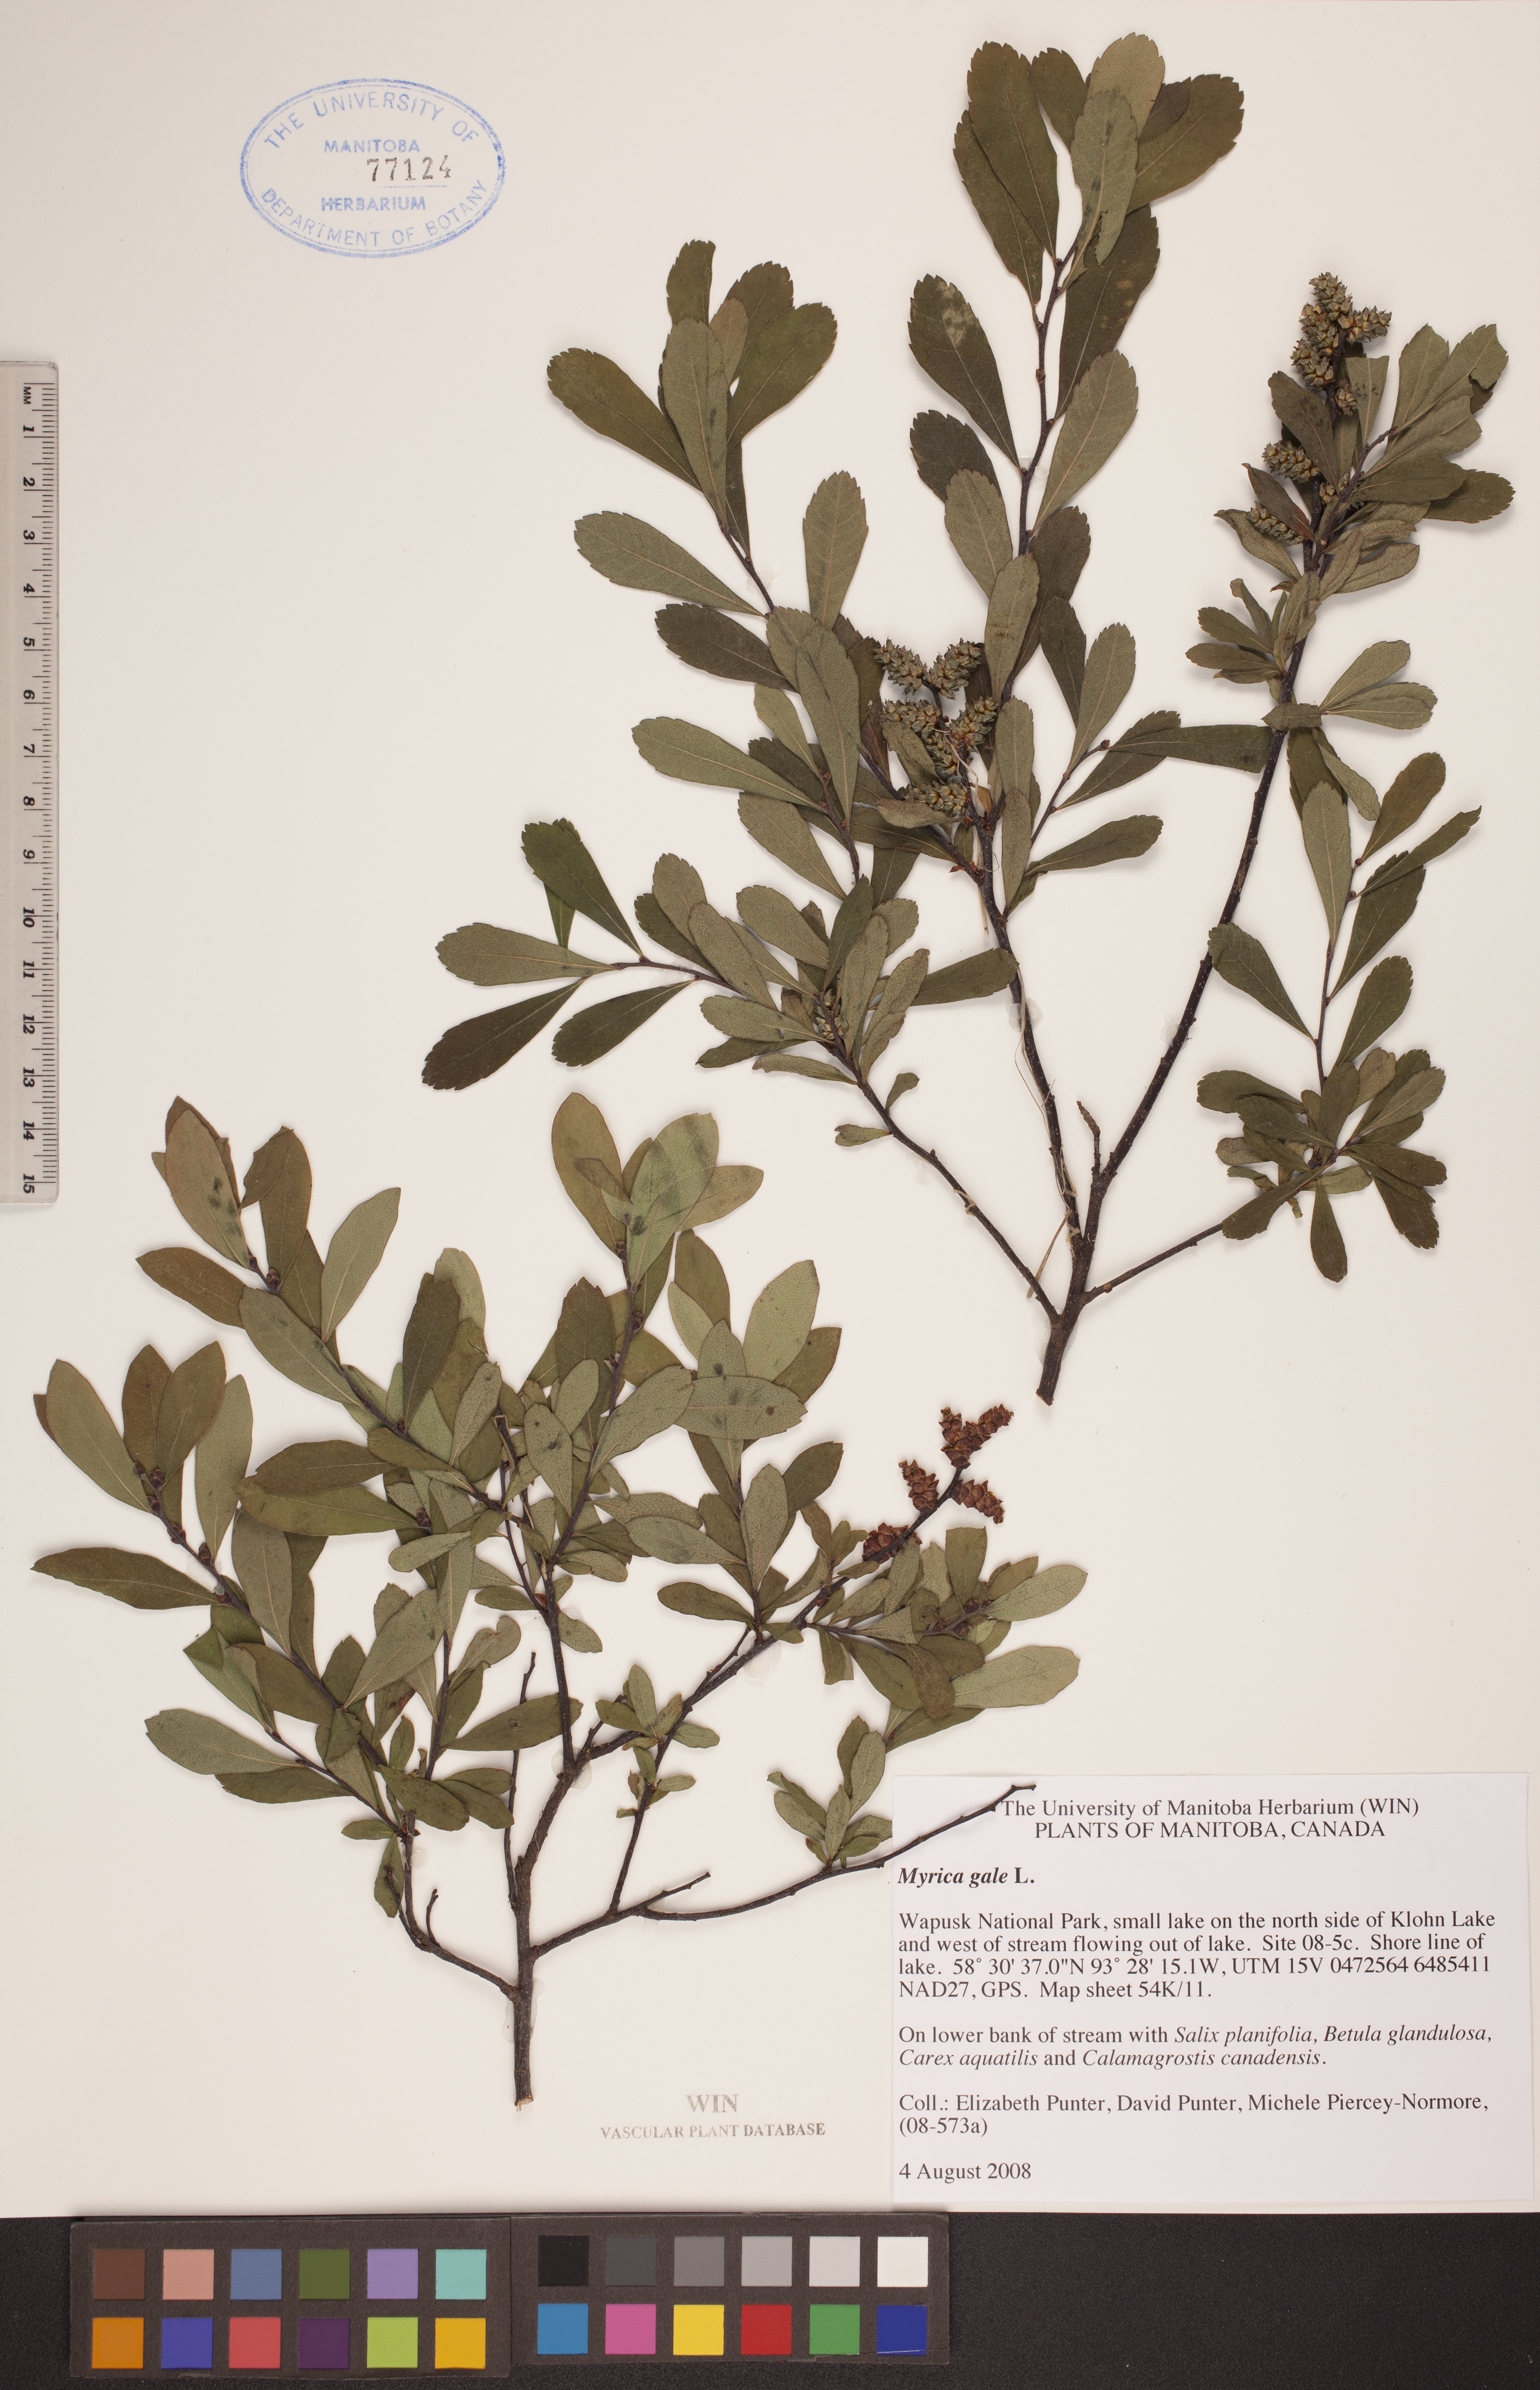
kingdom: Plantae
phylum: Tracheophyta
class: Magnoliopsida
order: Fagales
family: Myricaceae
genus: Myrica
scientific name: Myrica gale
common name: Sweet gale
